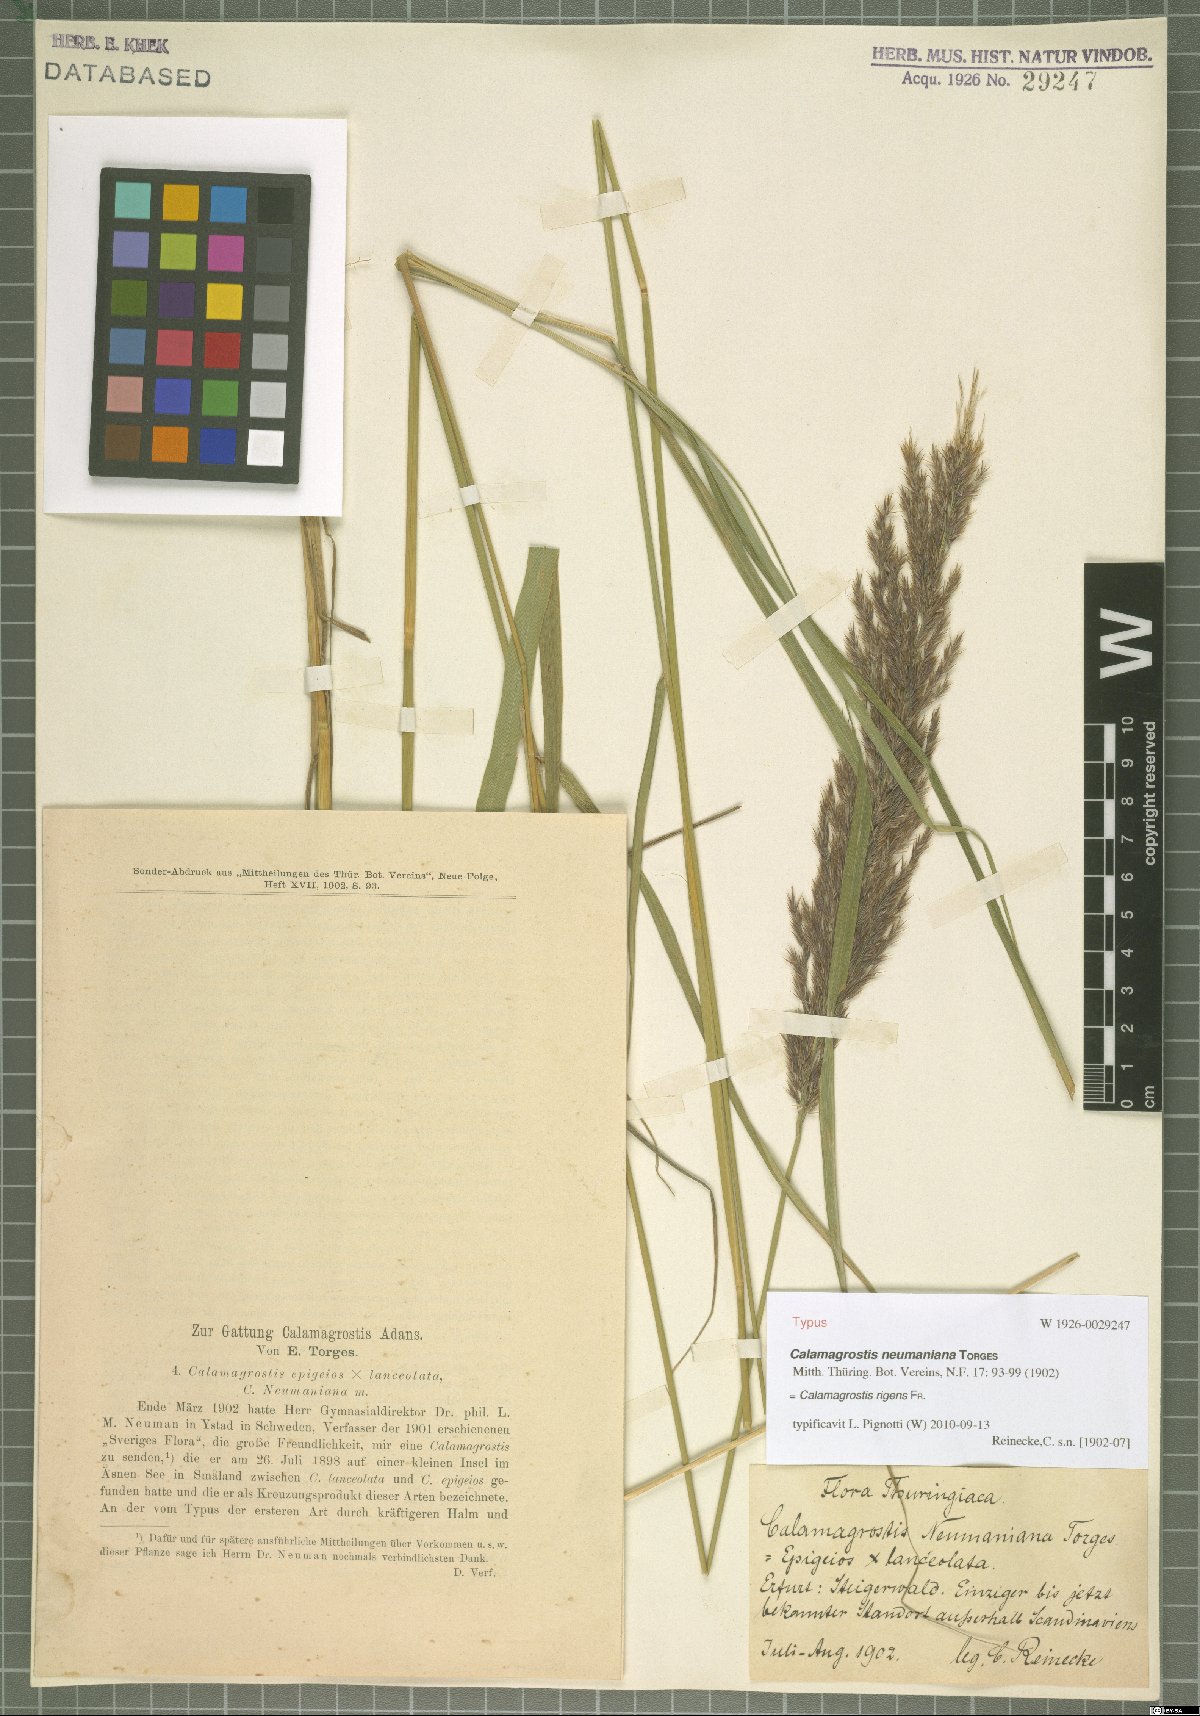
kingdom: Plantae
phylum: Tracheophyta
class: Liliopsida
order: Poales
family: Poaceae
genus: Calamagrostis
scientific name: Calamagrostis rigens
